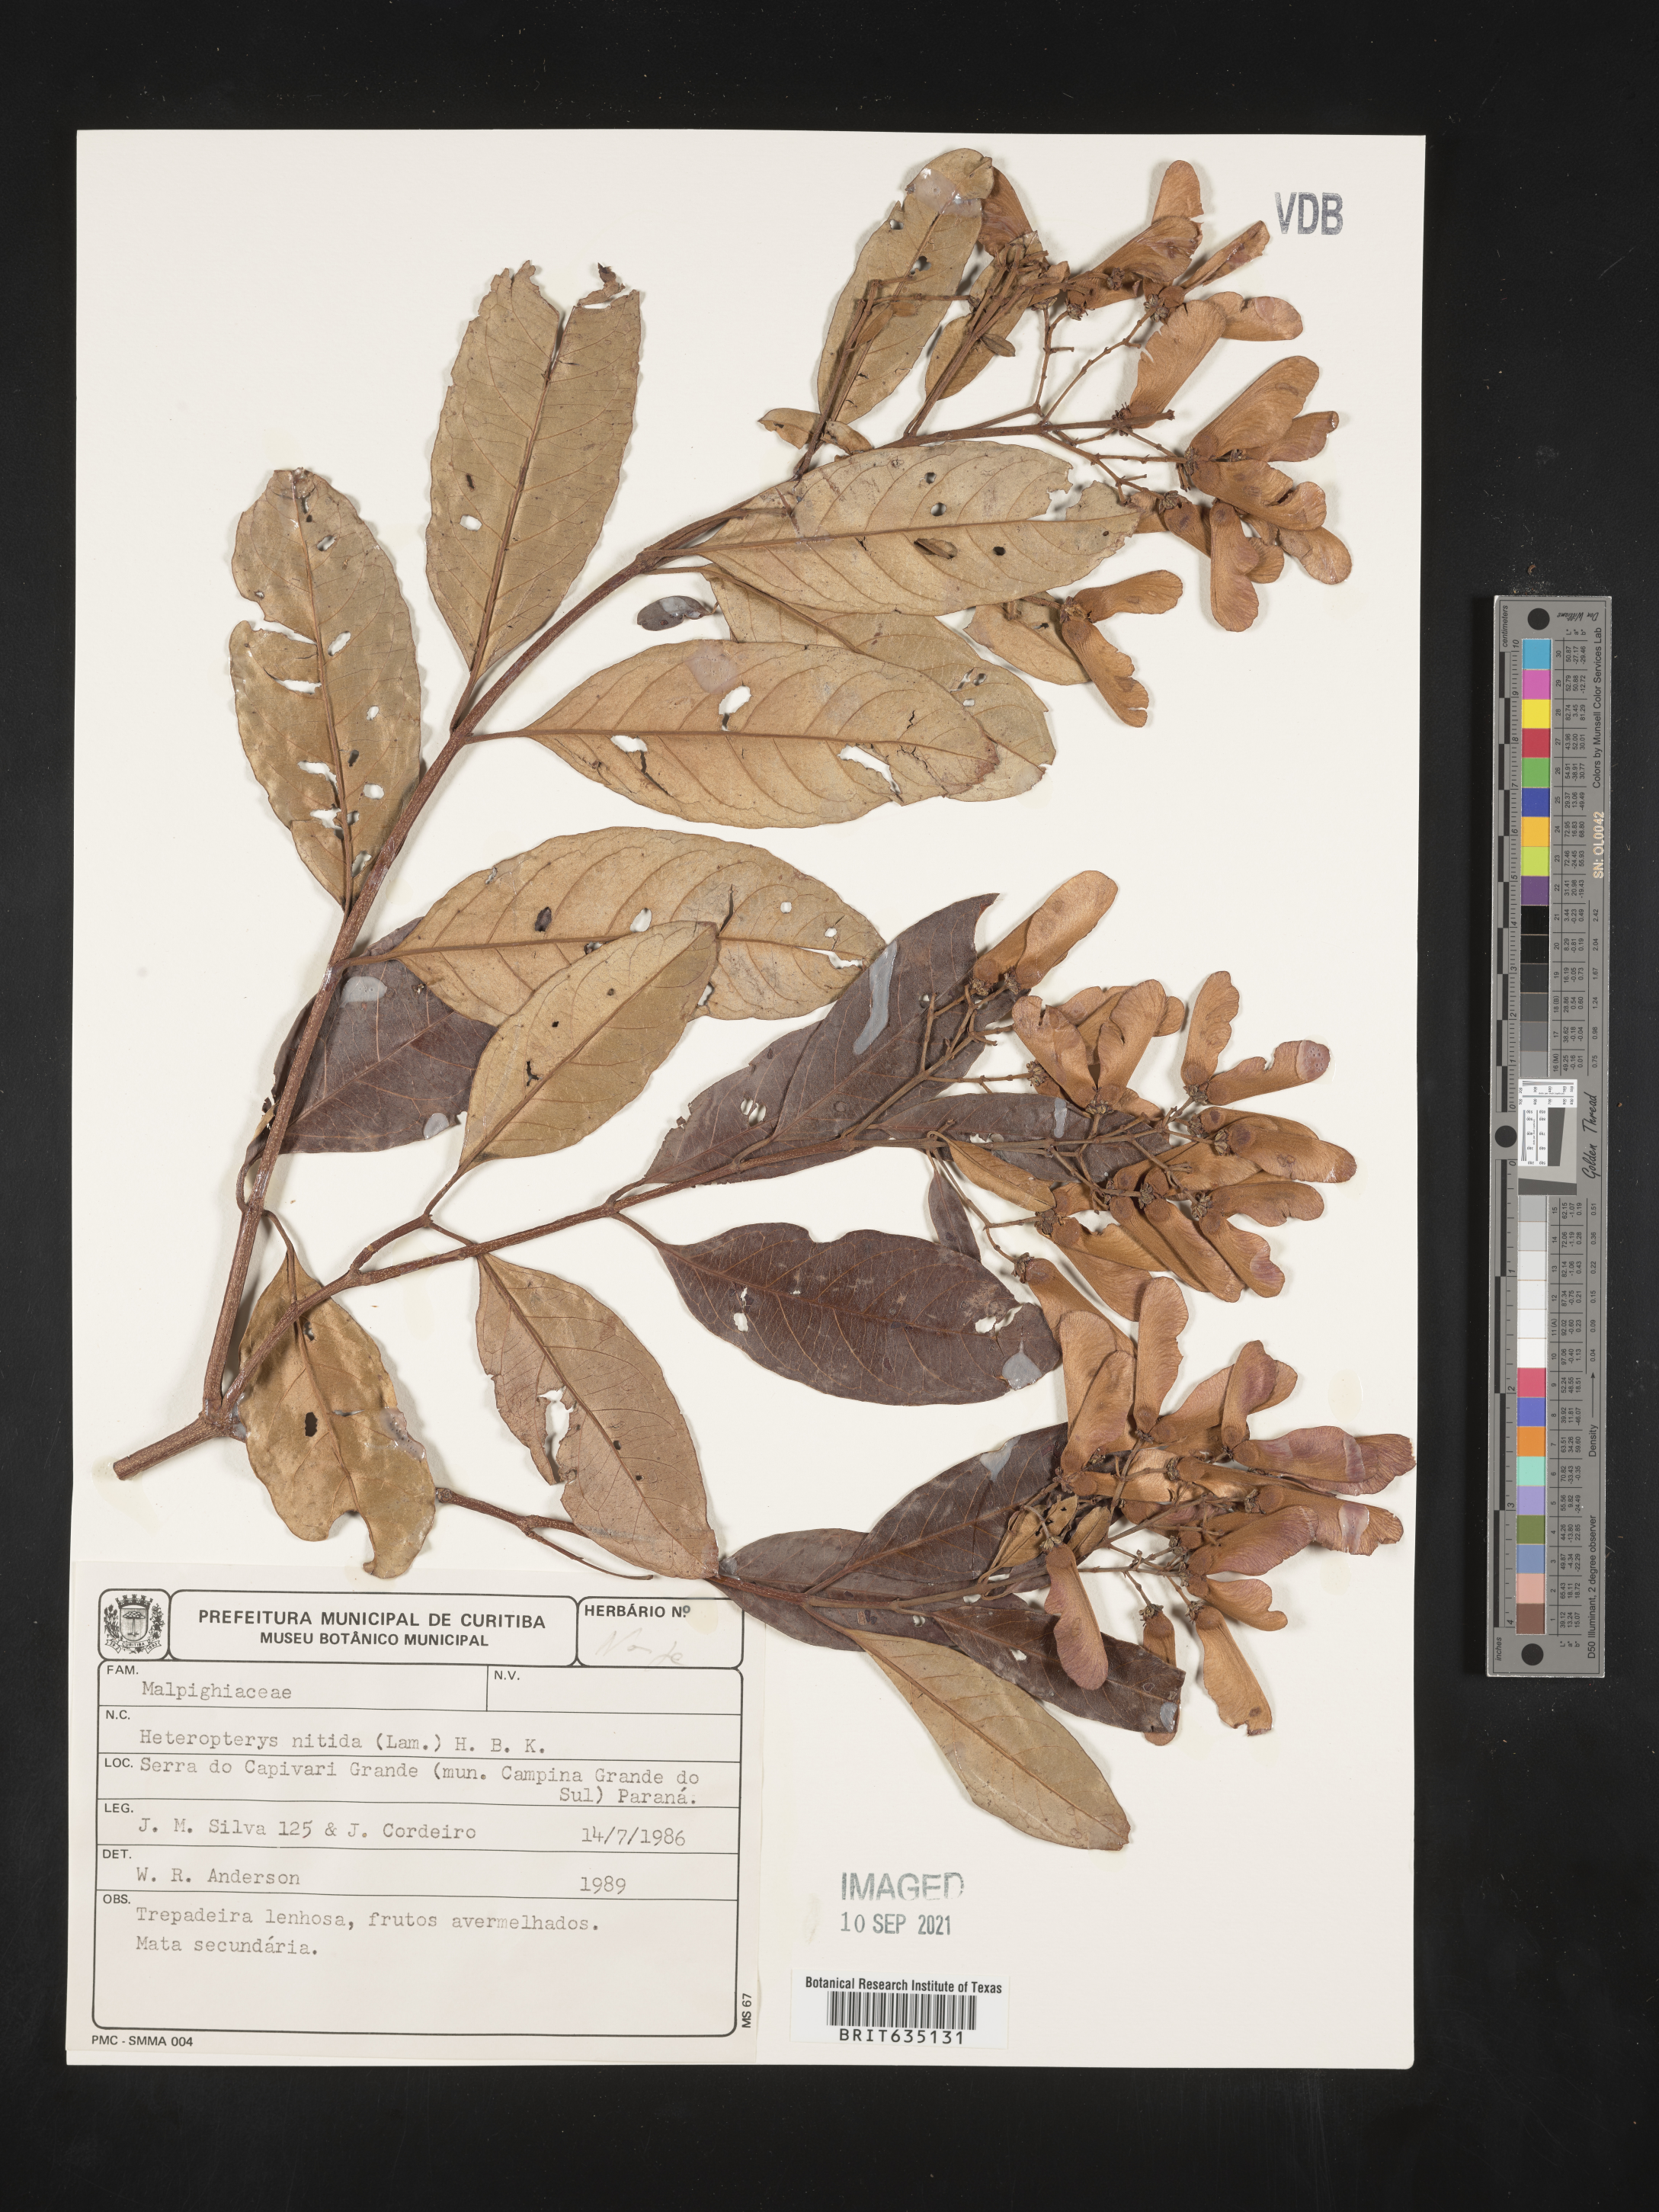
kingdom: Plantae
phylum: Tracheophyta
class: Polypodiopsida
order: Polypodiales
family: Pteridaceae
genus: Heteropteris
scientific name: Heteropteris
